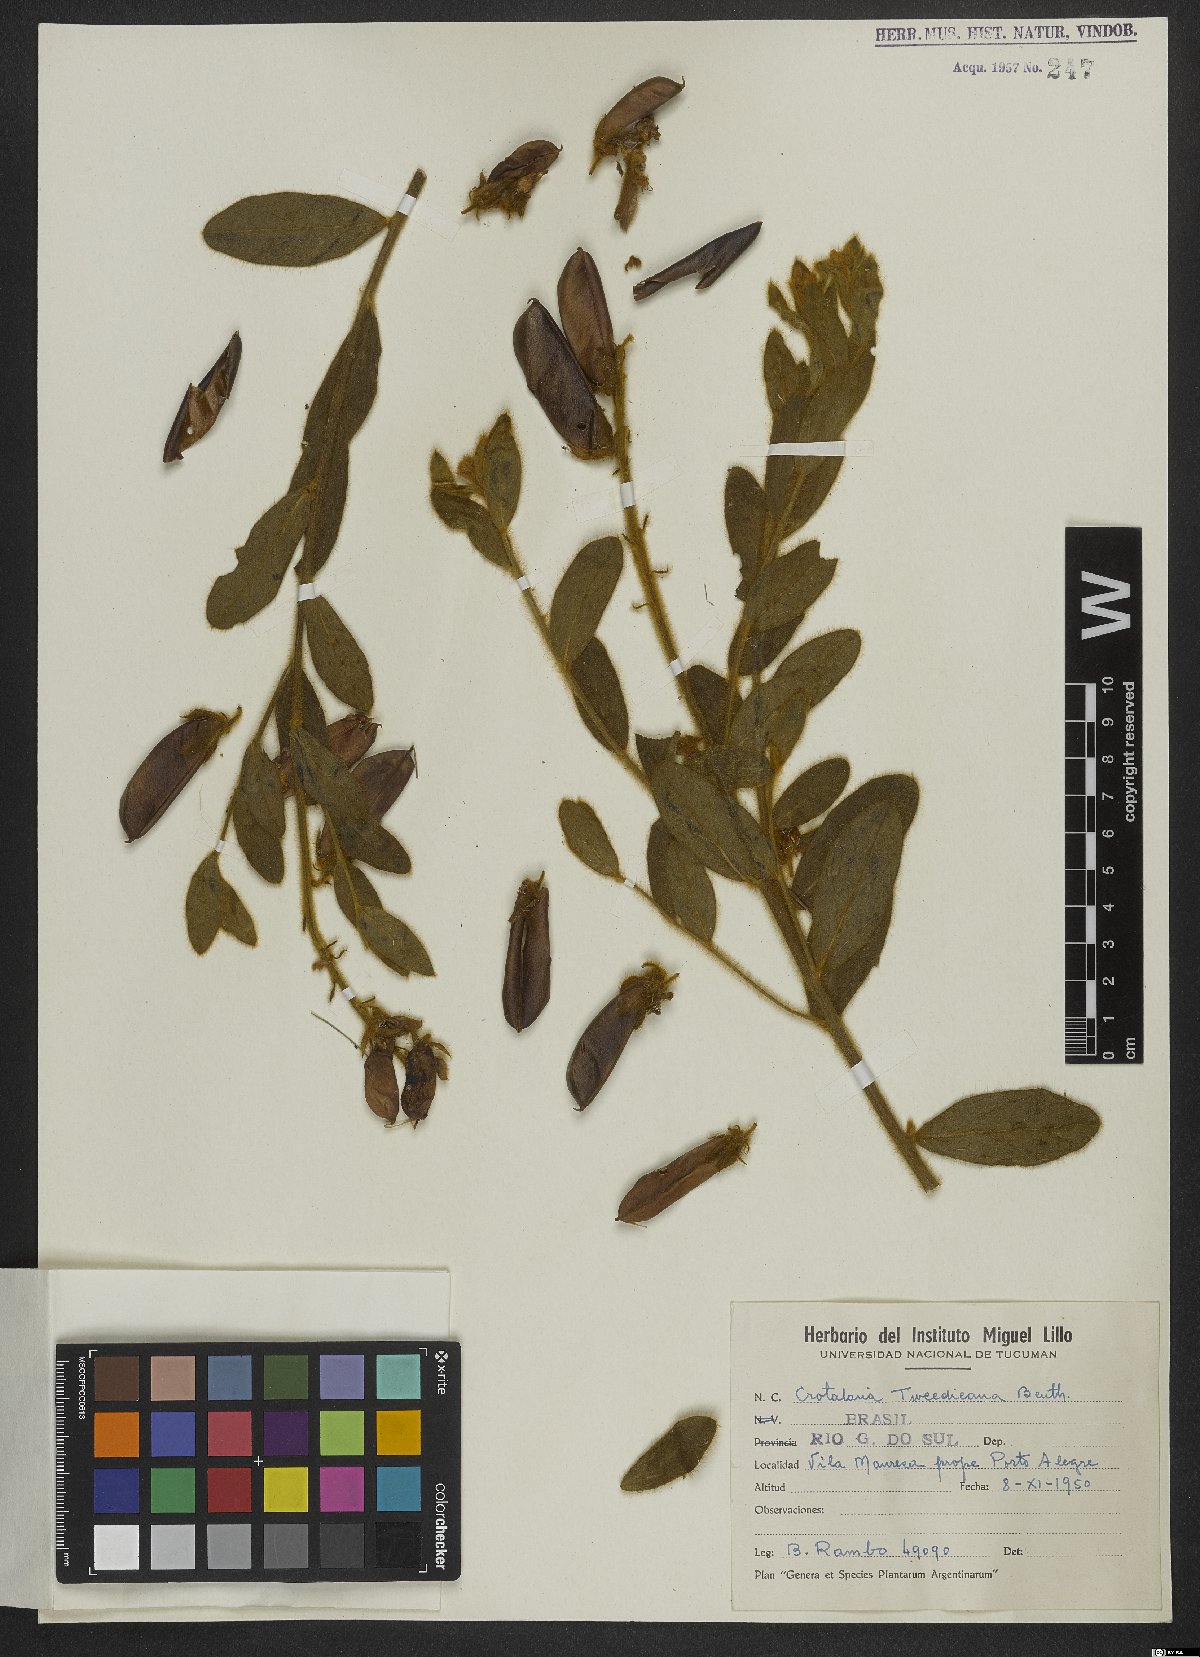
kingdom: Plantae
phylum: Tracheophyta
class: Magnoliopsida
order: Fabales
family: Fabaceae
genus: Crotalaria
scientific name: Crotalaria tweediana
